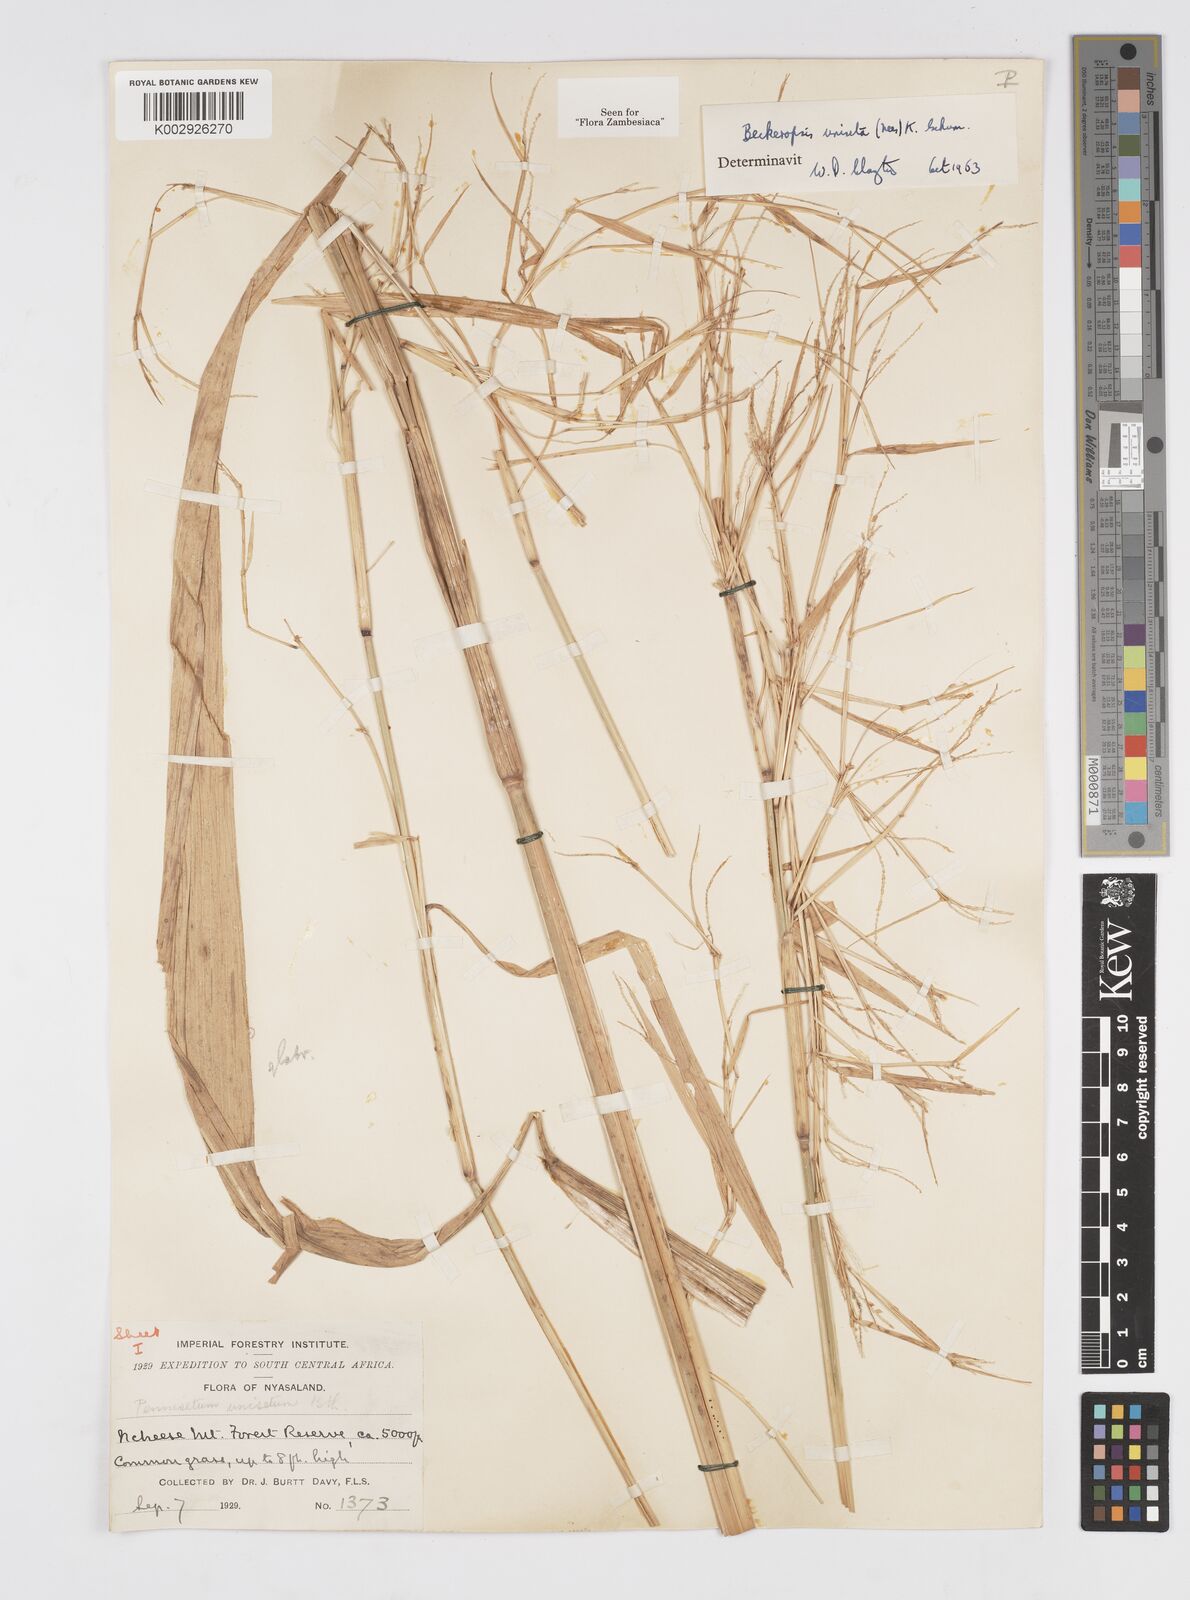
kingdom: Plantae
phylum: Tracheophyta
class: Liliopsida
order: Poales
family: Poaceae
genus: Cenchrus
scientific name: Cenchrus unisetus
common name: Natal grass
